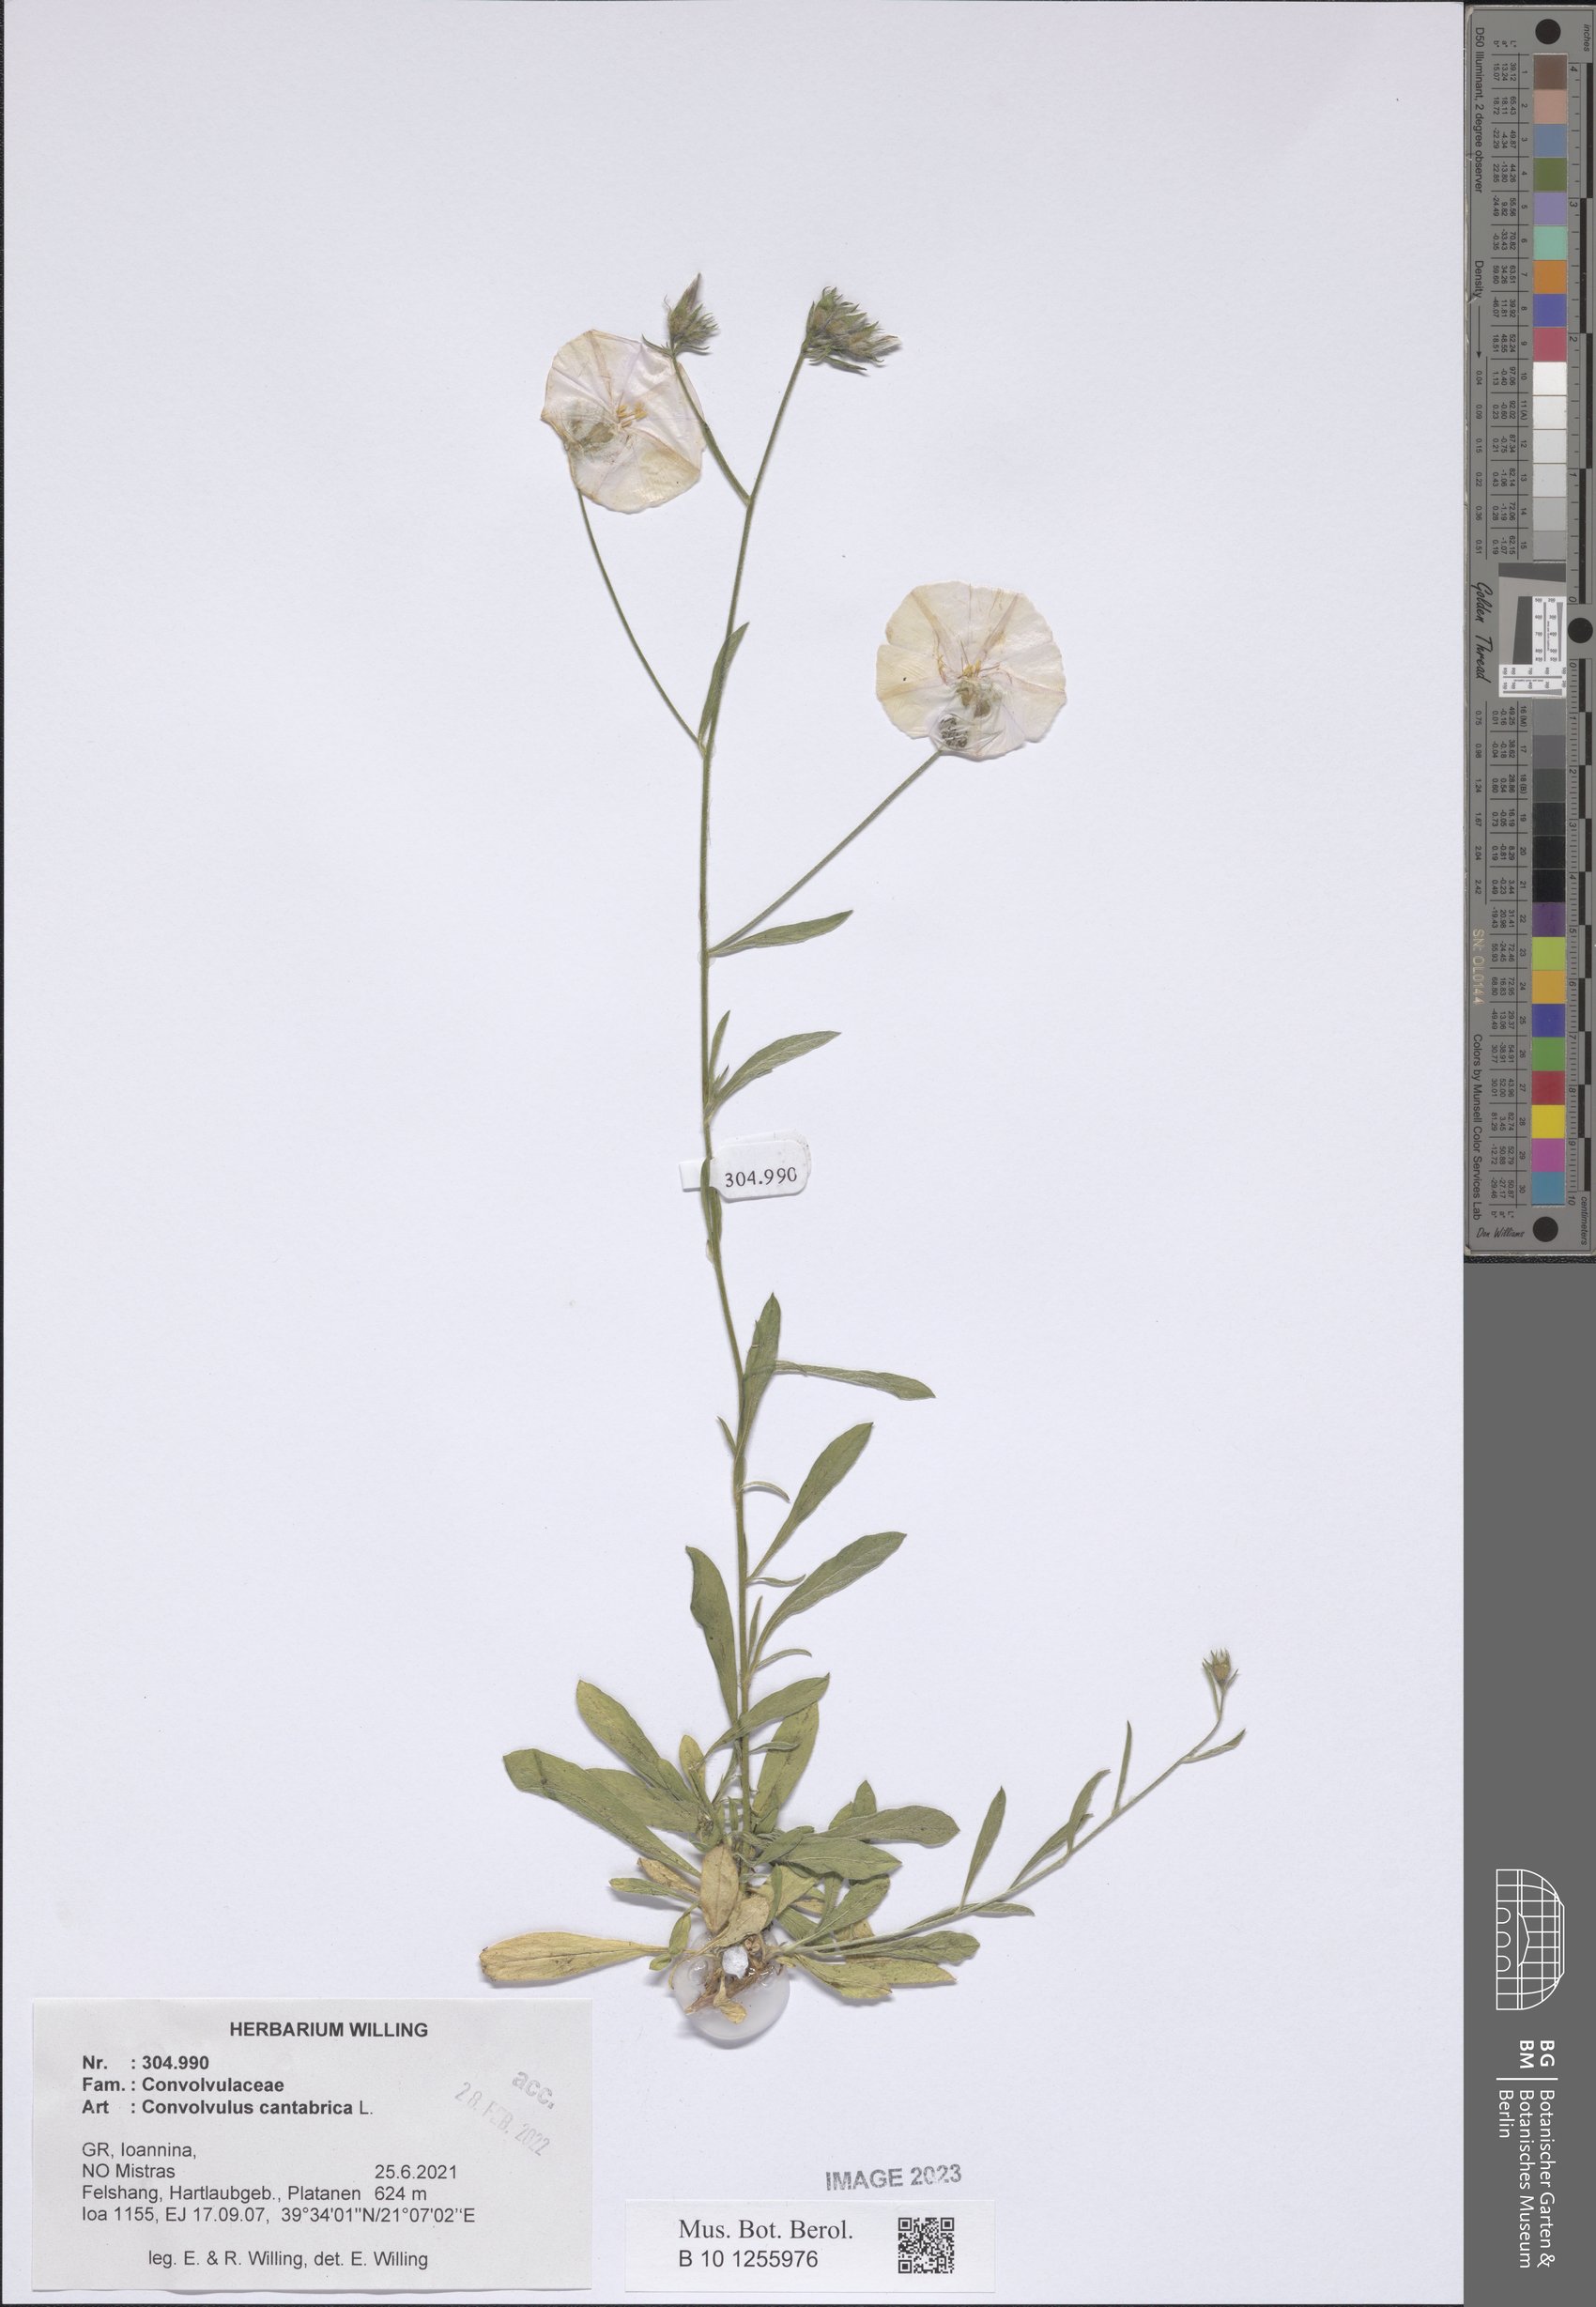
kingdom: Plantae
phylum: Tracheophyta
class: Magnoliopsida
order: Solanales
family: Convolvulaceae
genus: Convolvulus
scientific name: Convolvulus cantabrica
